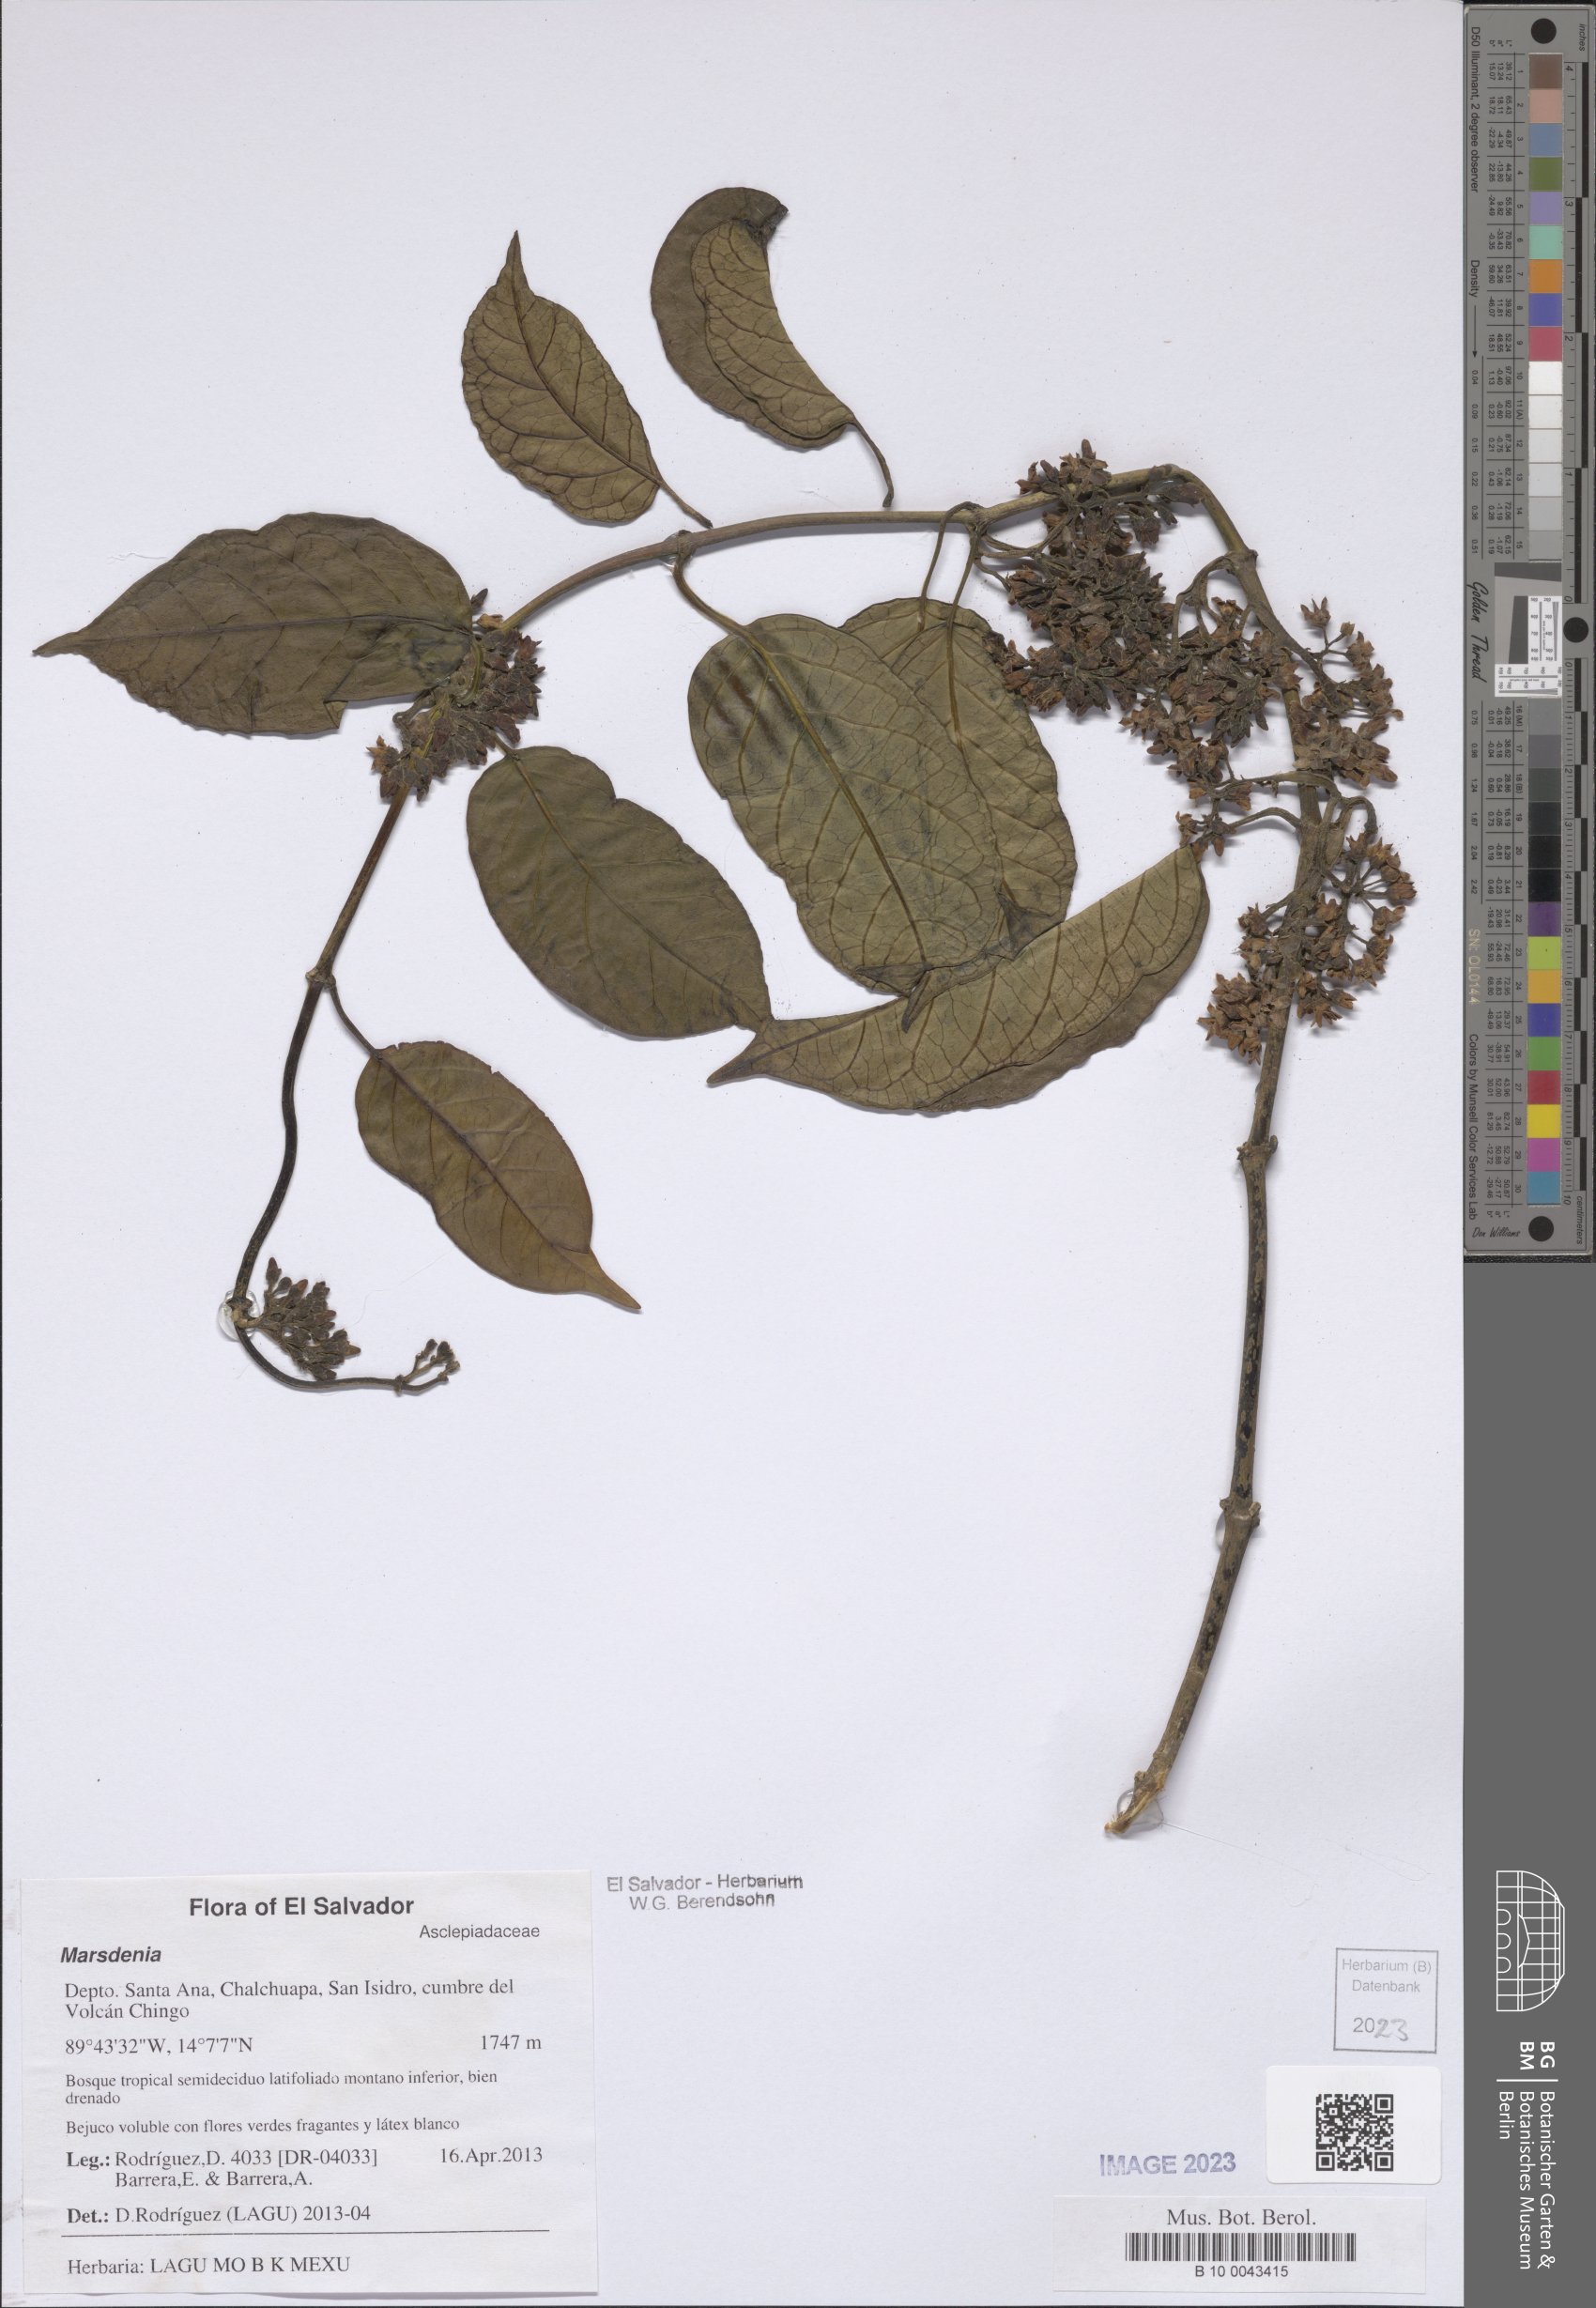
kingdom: Plantae
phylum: Tracheophyta
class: Magnoliopsida
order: Gentianales
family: Apocynaceae
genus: Marsdenia
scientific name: Marsdenia
